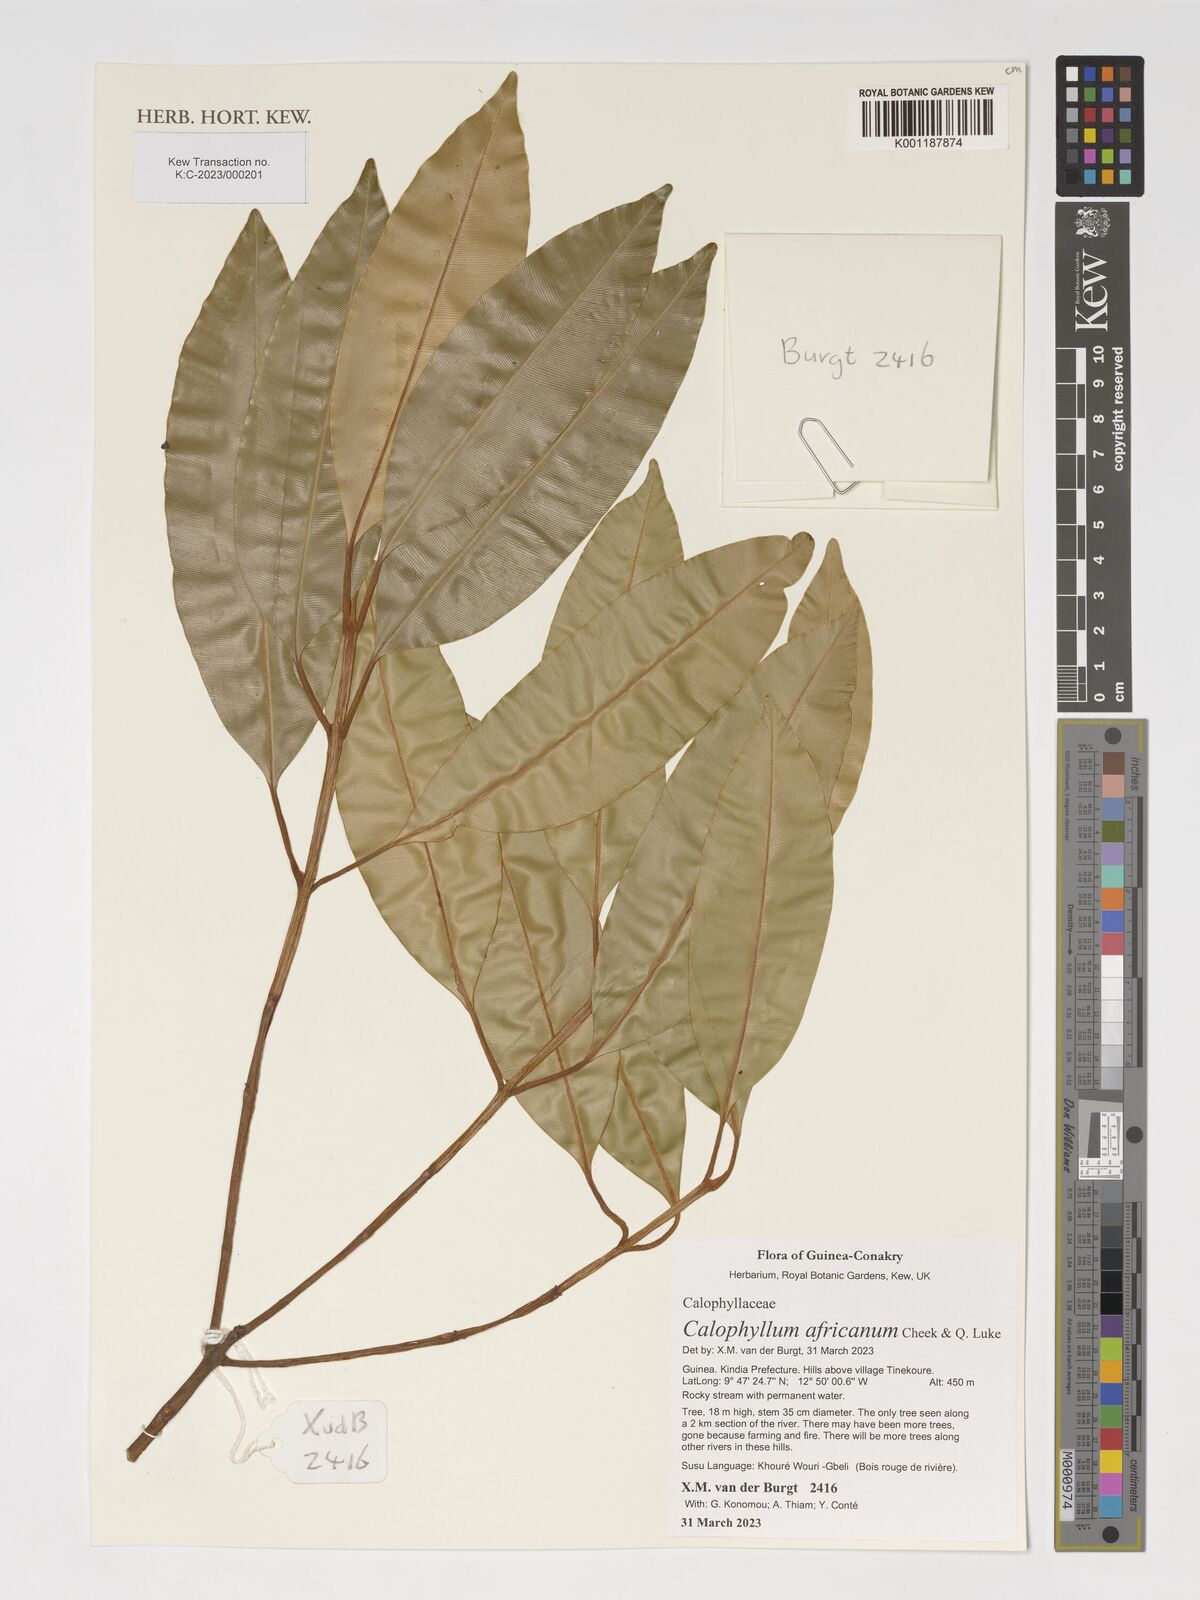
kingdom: Plantae
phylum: Tracheophyta
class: Magnoliopsida
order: Malpighiales
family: Calophyllaceae
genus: Calophyllum
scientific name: Calophyllum africanum
